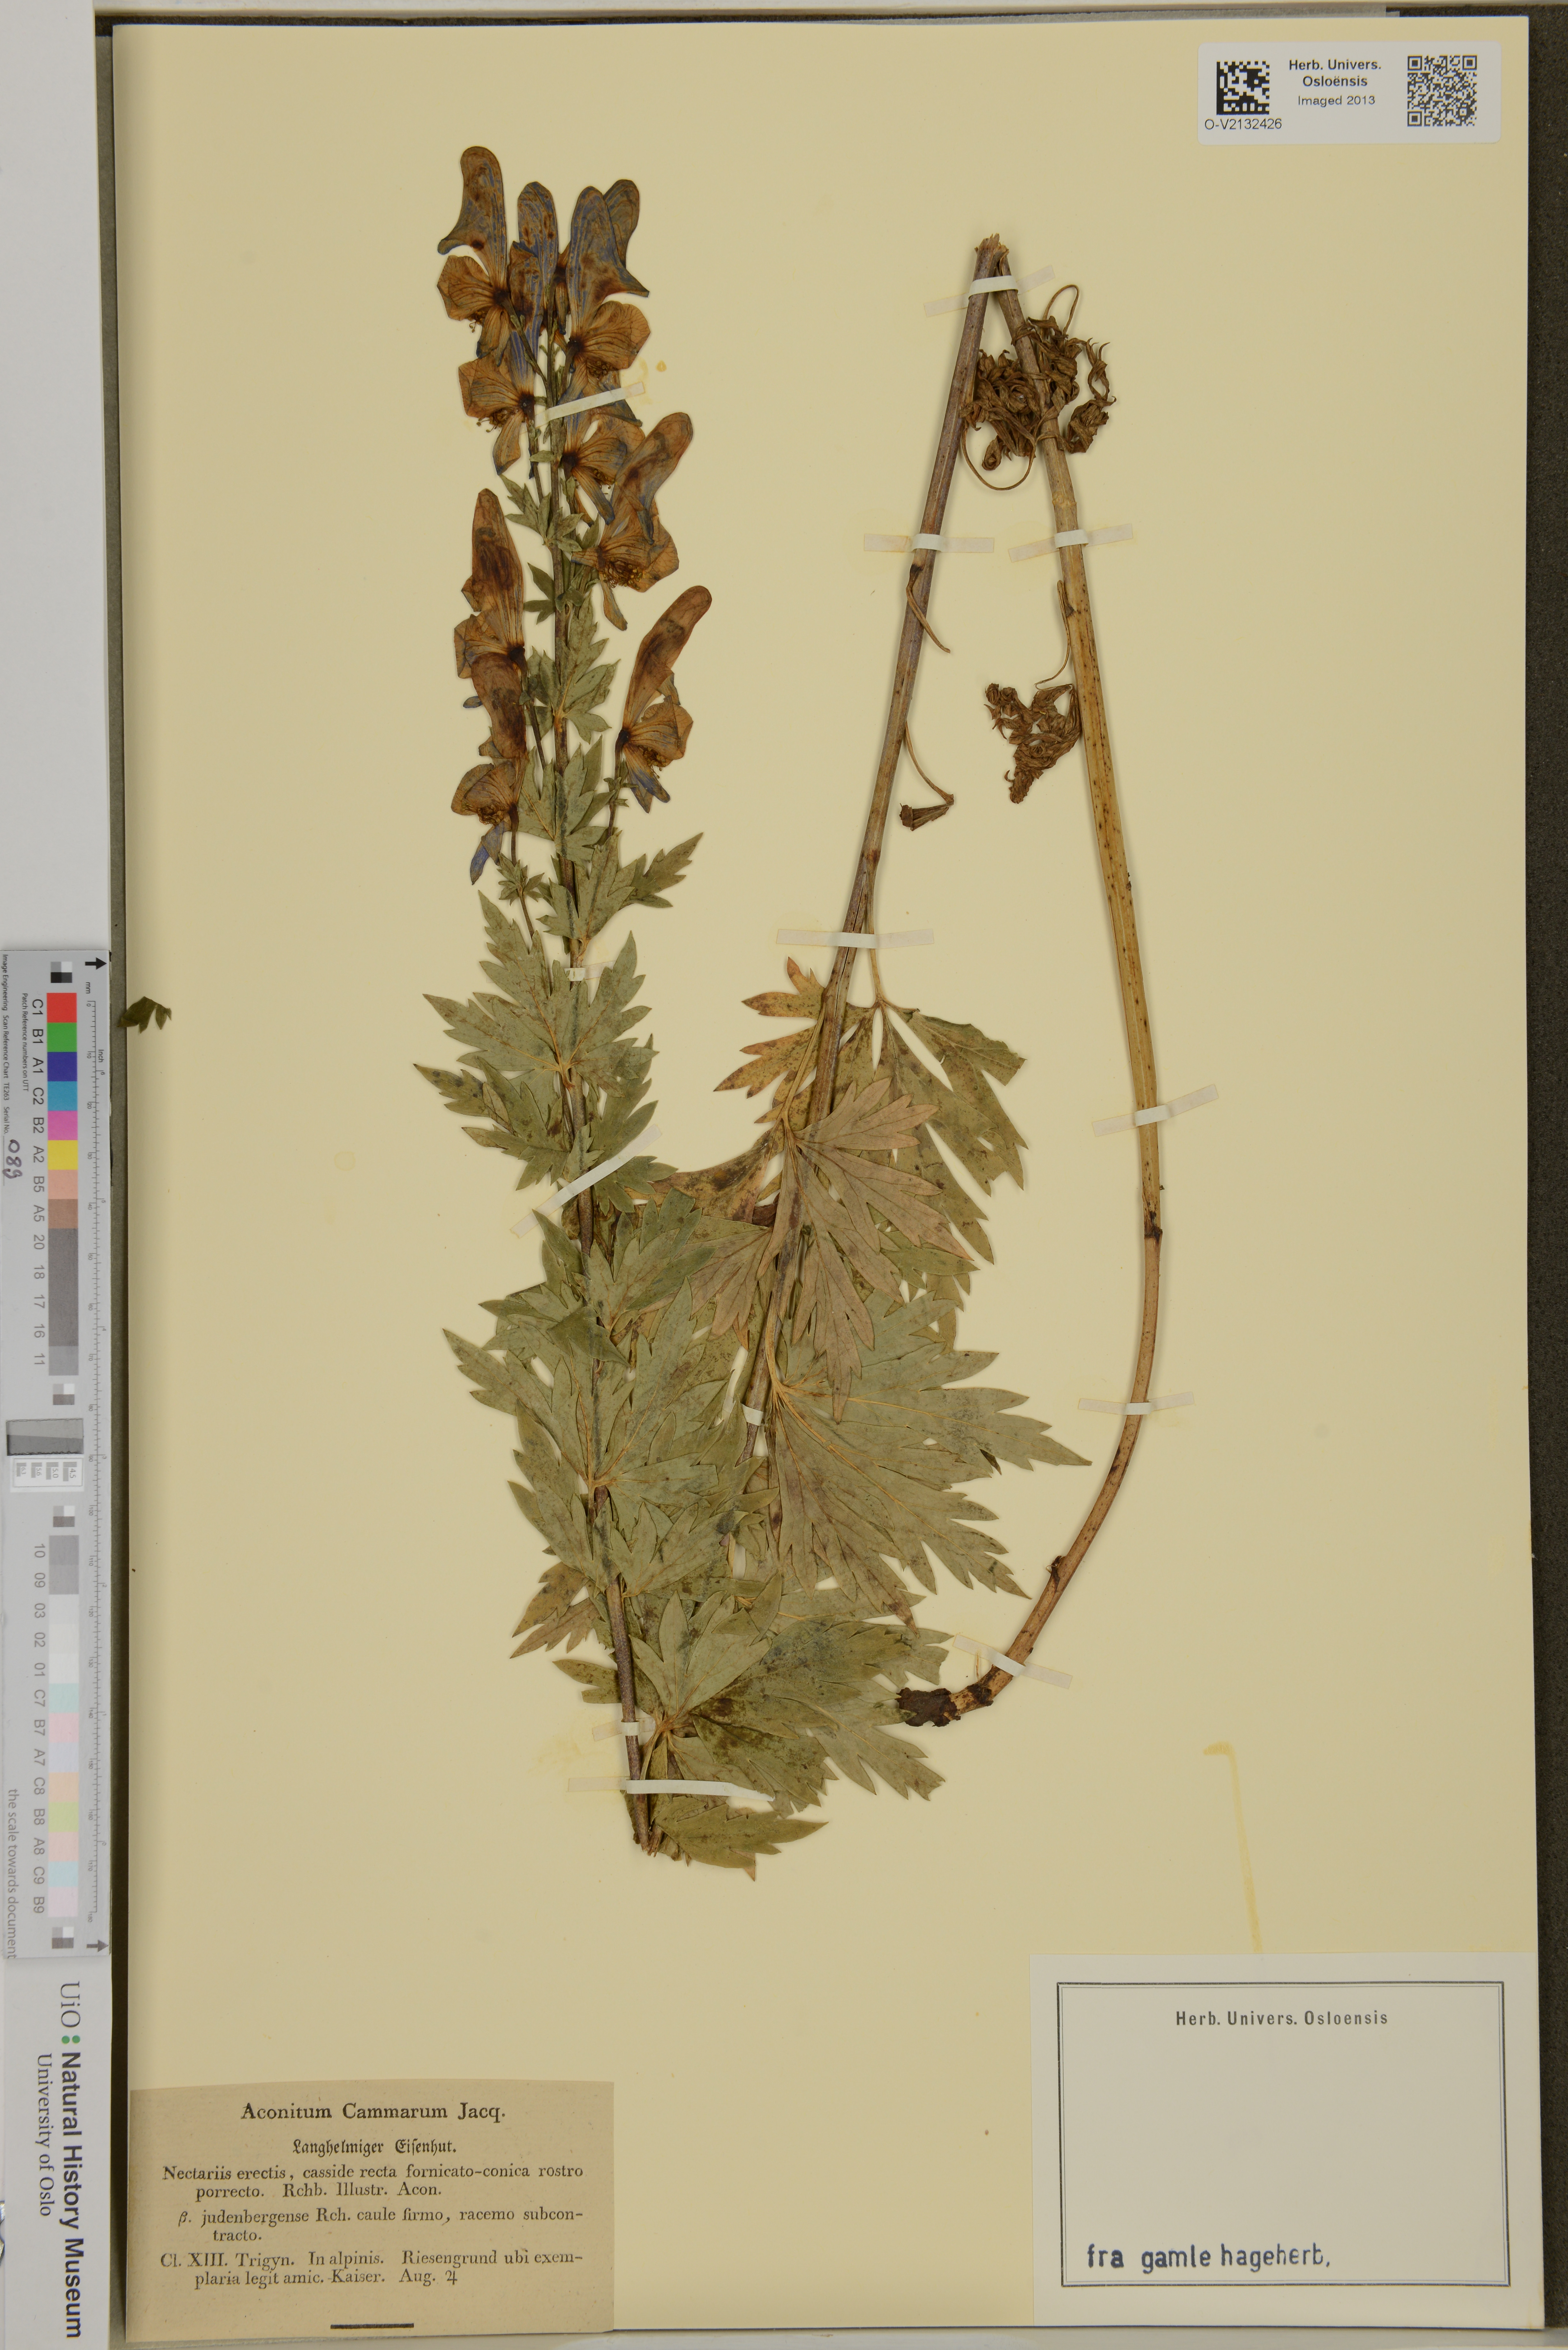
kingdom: Plantae
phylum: Tracheophyta
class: Magnoliopsida
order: Ranunculales
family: Ranunculaceae
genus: Aconitum
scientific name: Aconitum cammarum
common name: Hybrid monk's-hood
